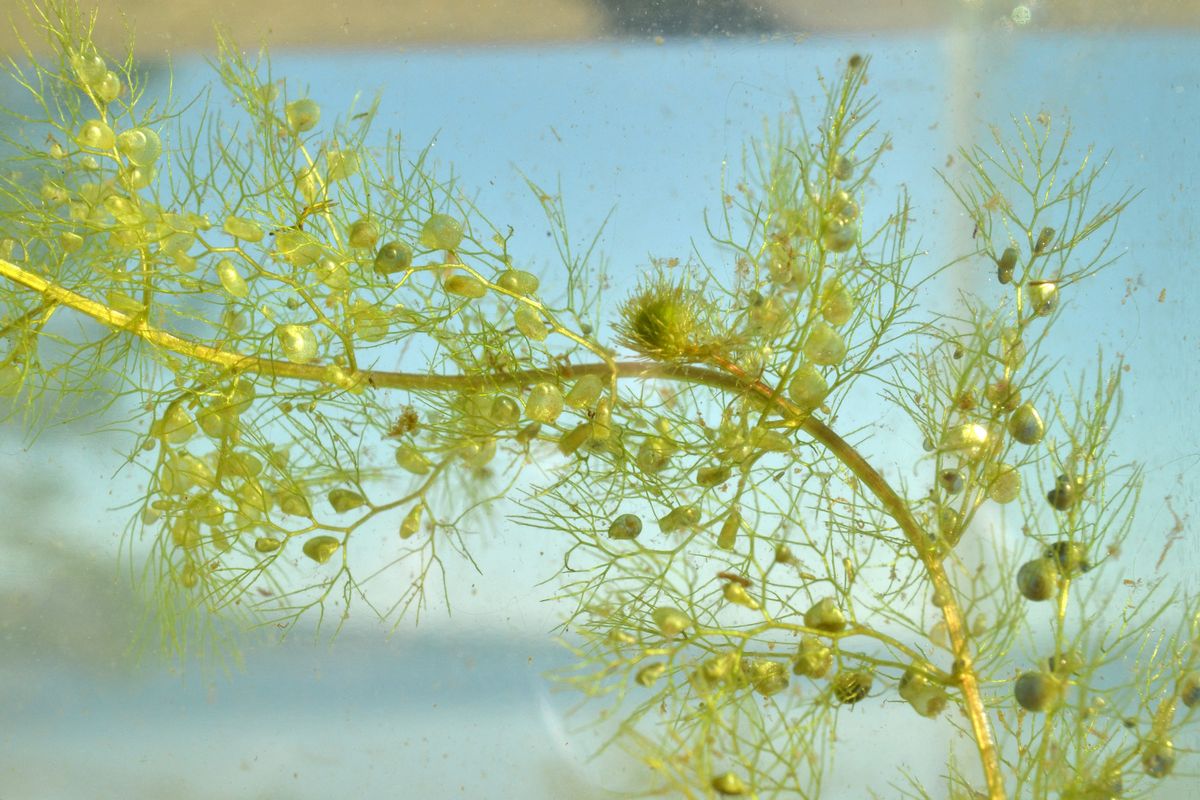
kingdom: Plantae
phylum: Tracheophyta
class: Magnoliopsida
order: Lamiales
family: Lentibulariaceae
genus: Utricularia
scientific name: Utricularia vulgaris
